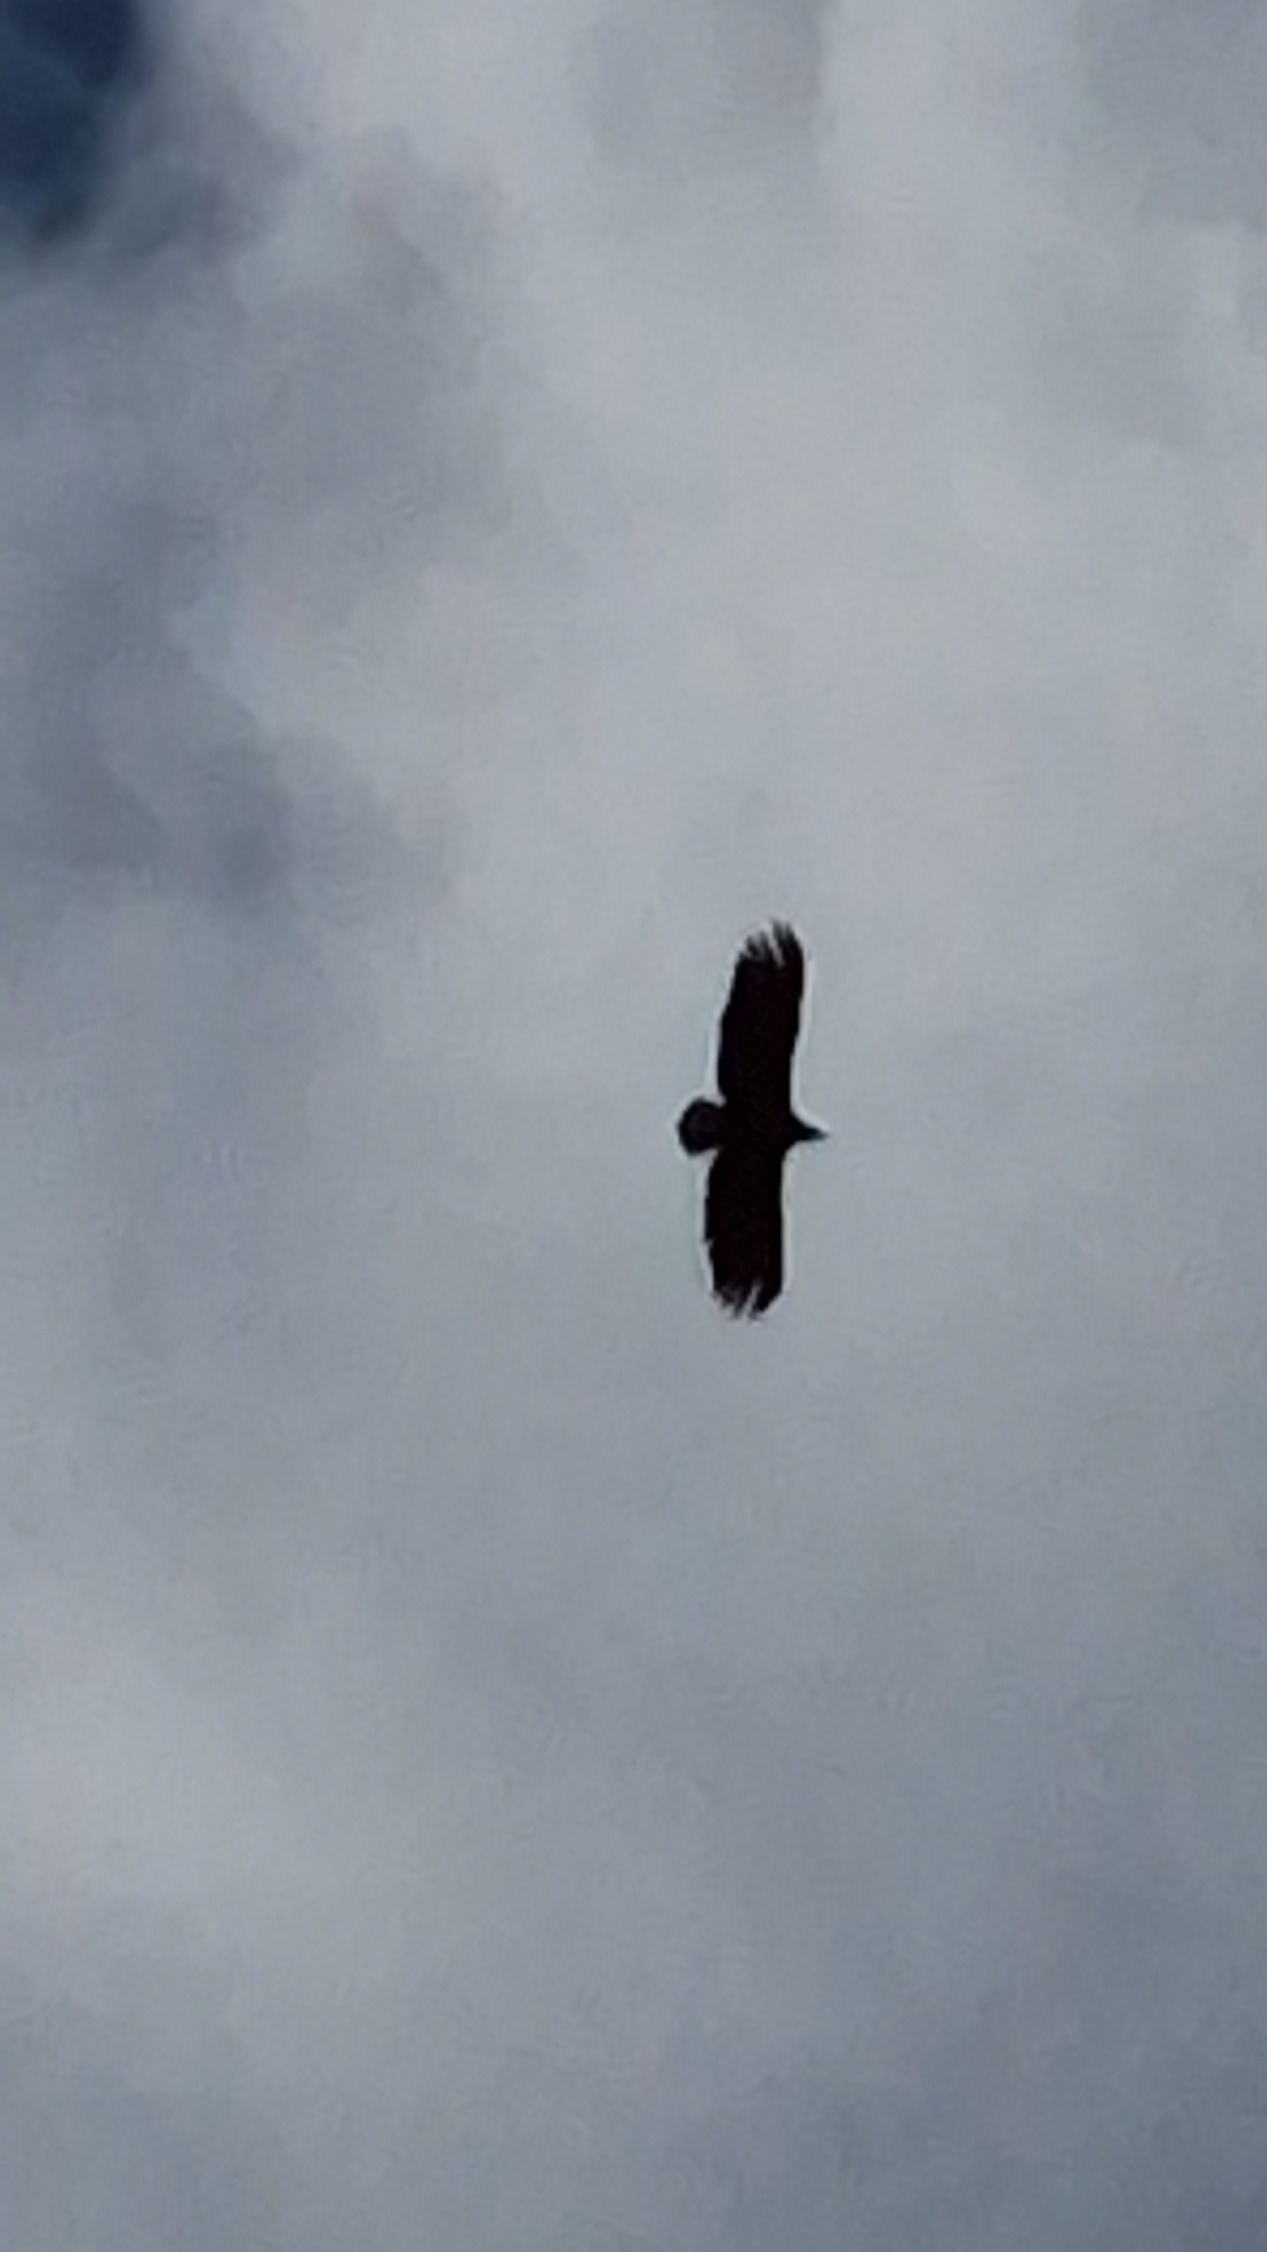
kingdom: Animalia
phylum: Chordata
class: Aves
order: Accipitriformes
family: Accipitridae
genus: Haliaeetus
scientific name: Haliaeetus albicilla
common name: Havørn
